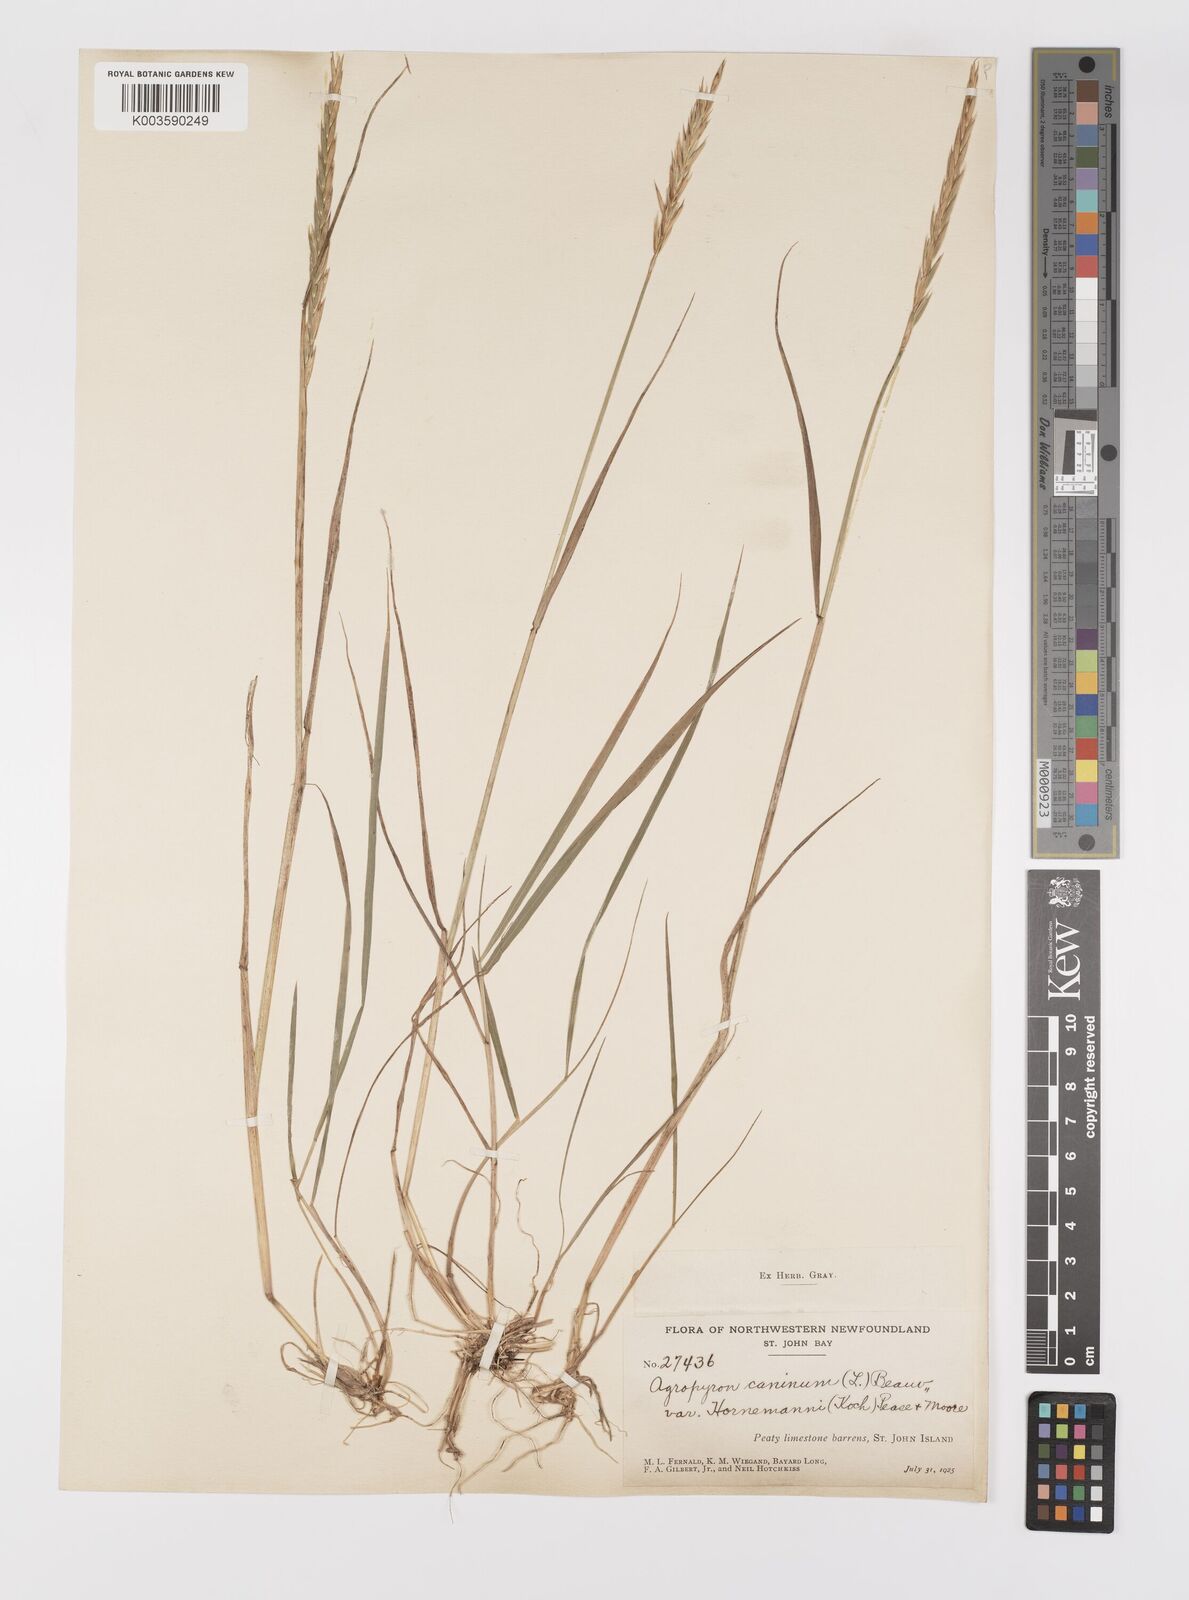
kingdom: Plantae
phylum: Tracheophyta
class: Liliopsida
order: Poales
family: Poaceae
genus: Elymus
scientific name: Elymus
